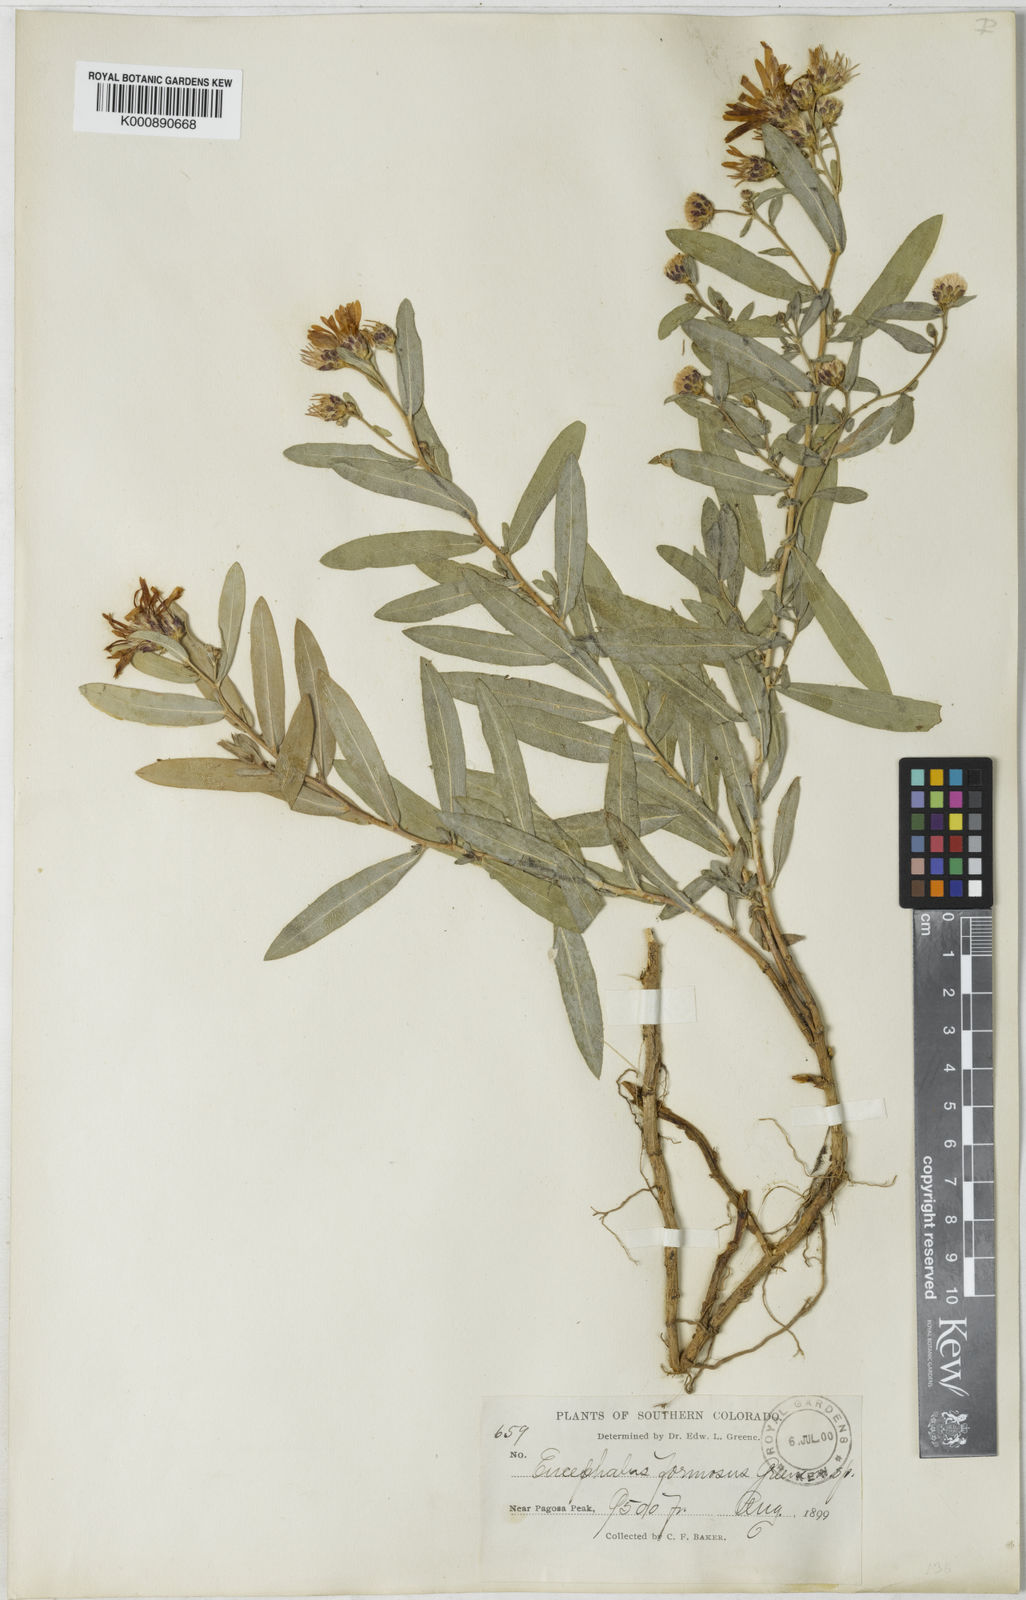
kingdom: Plantae
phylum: Tracheophyta
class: Magnoliopsida
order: Asterales
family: Asteraceae
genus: Lorandersonia
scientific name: Lorandersonia pulchella
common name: Southwestern rabbitbrush
